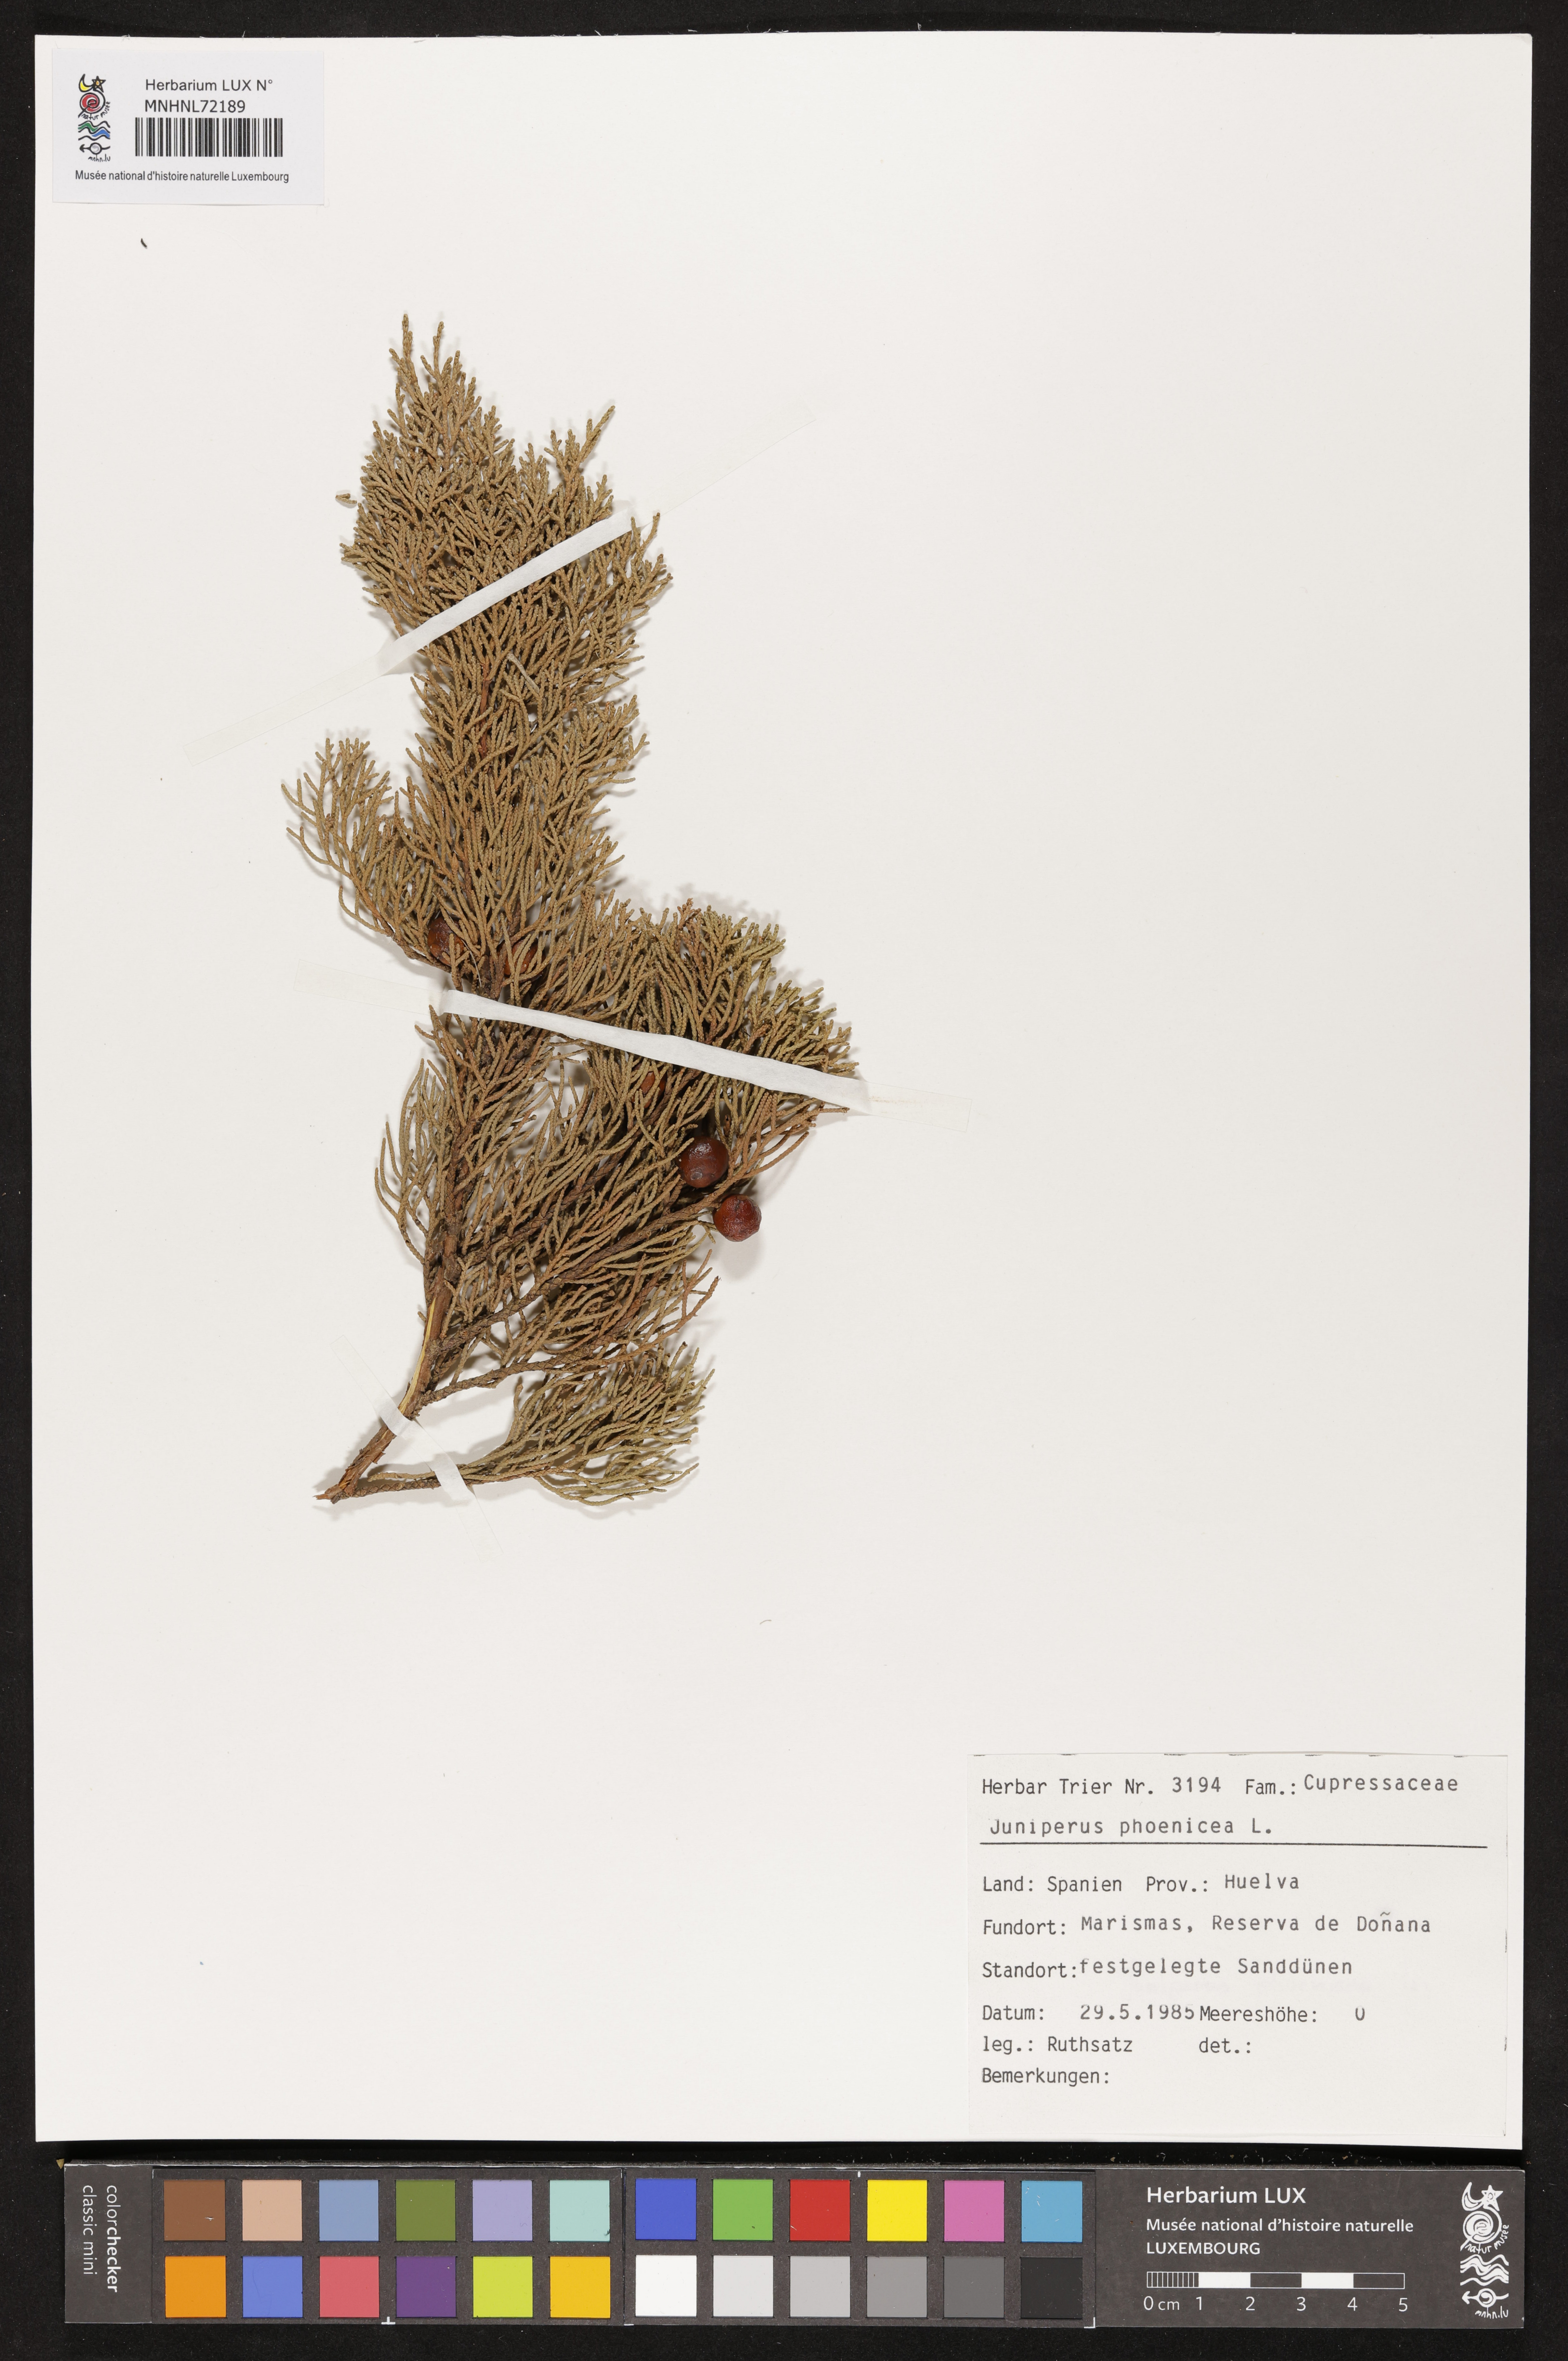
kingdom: Plantae
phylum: Tracheophyta
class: Pinopsida
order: Pinales
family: Cupressaceae
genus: Juniperus
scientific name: Juniperus phoenicea
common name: Phoenician juniper
